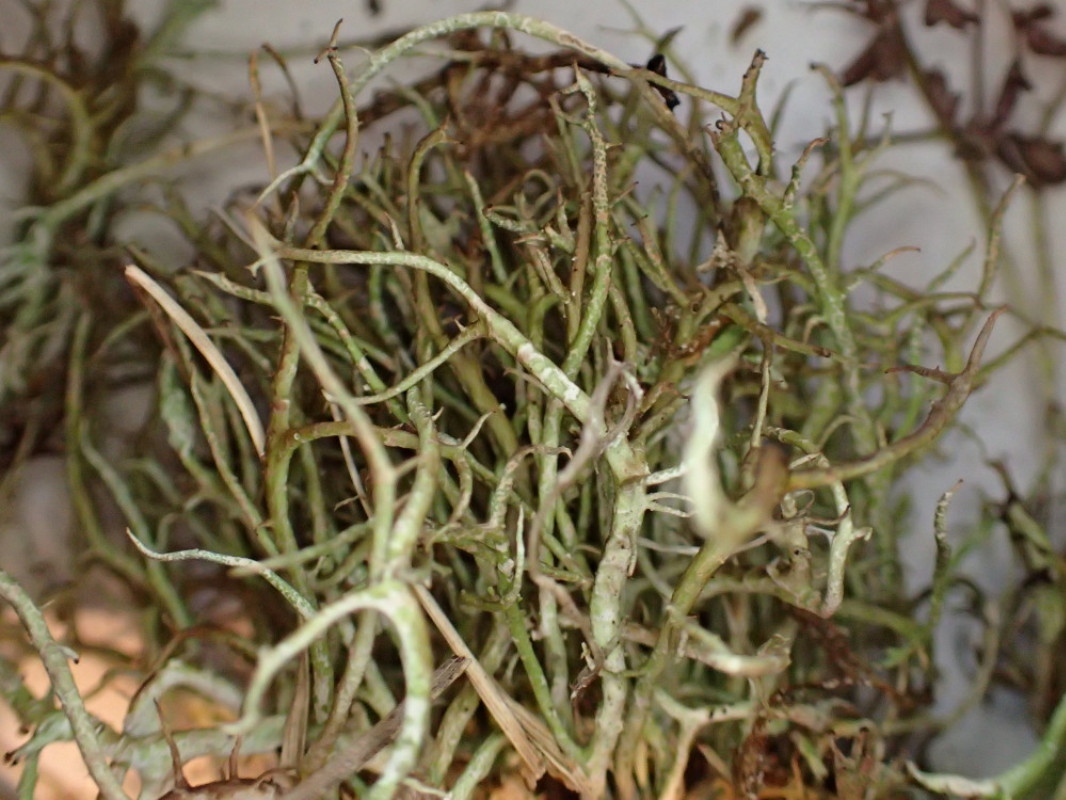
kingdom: Fungi
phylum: Ascomycota
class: Lecanoromycetes
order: Lecanorales
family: Cladoniaceae
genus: Cladonia
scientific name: Cladonia furcata
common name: kløftet bægerlav
